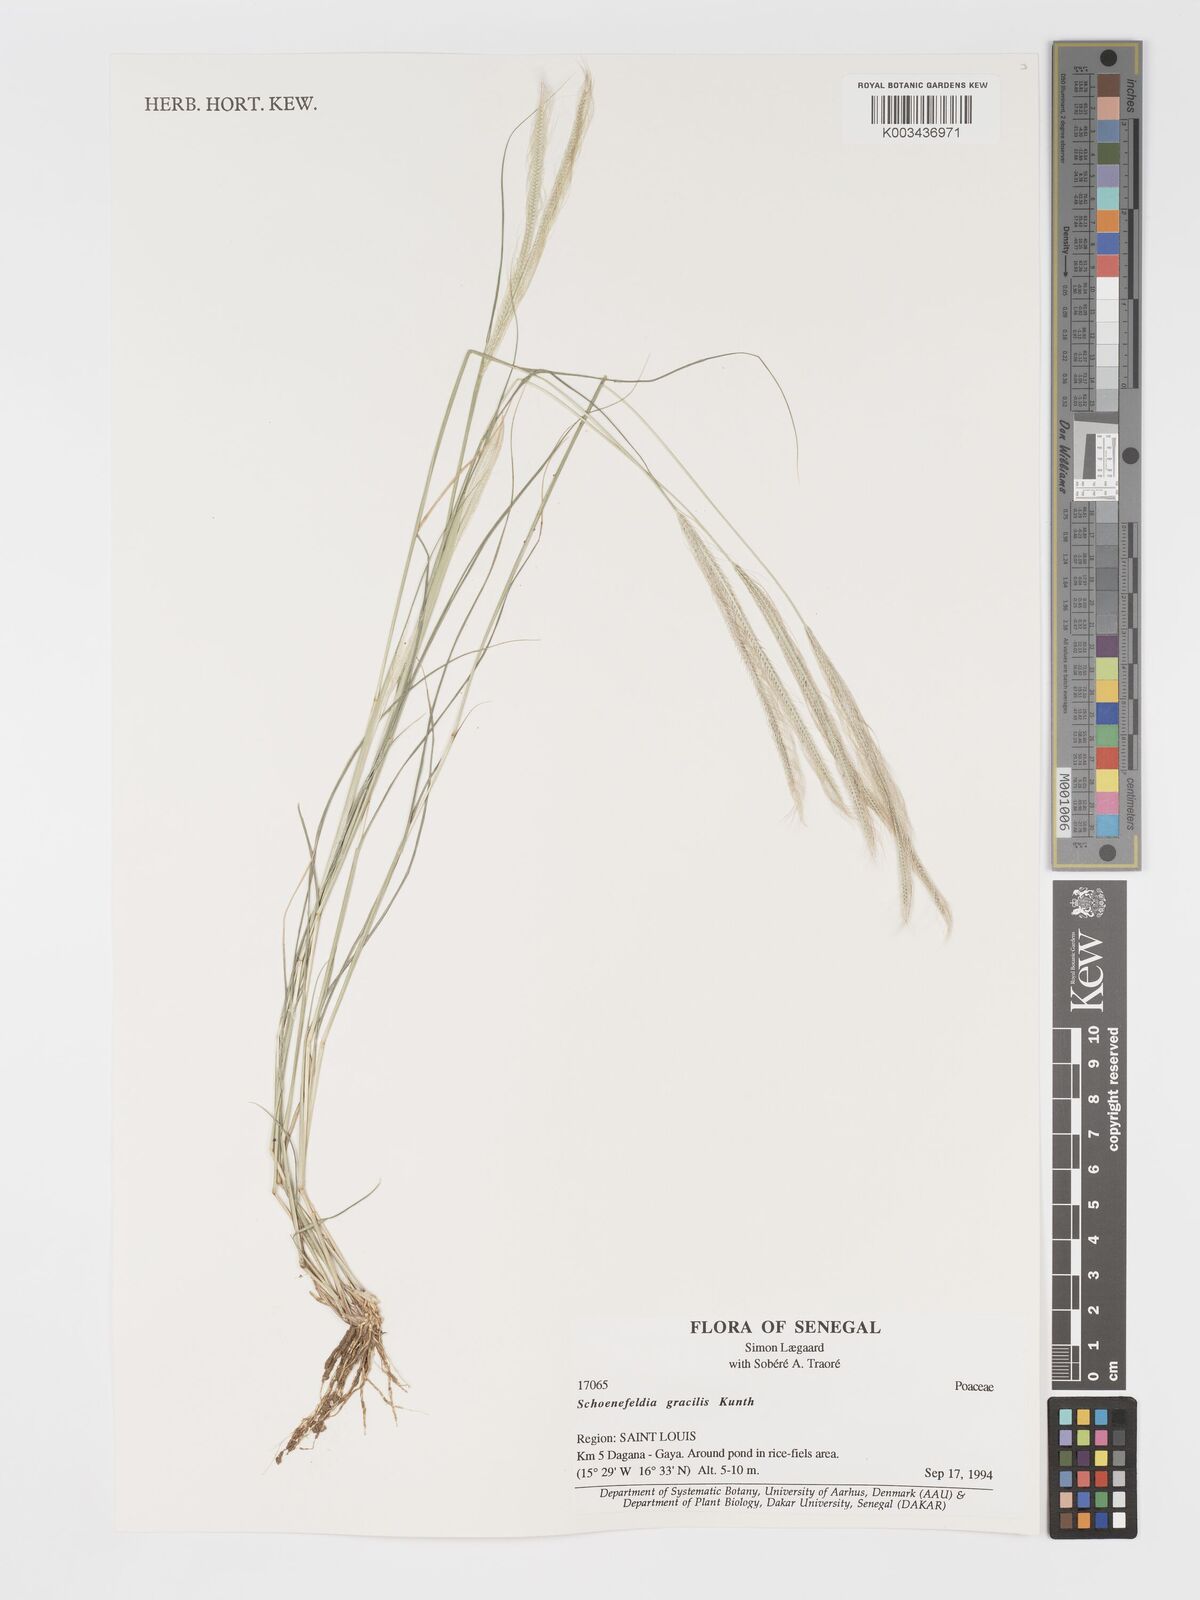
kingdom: Plantae
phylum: Tracheophyta
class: Liliopsida
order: Poales
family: Poaceae
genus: Schoenefeldia
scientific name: Schoenefeldia gracilis
